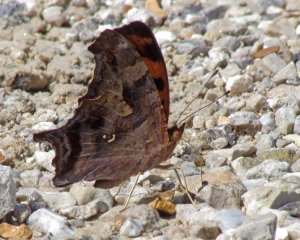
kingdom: Animalia
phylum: Arthropoda
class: Insecta
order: Lepidoptera
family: Nymphalidae
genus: Polygonia
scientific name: Polygonia interrogationis
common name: Question Mark
